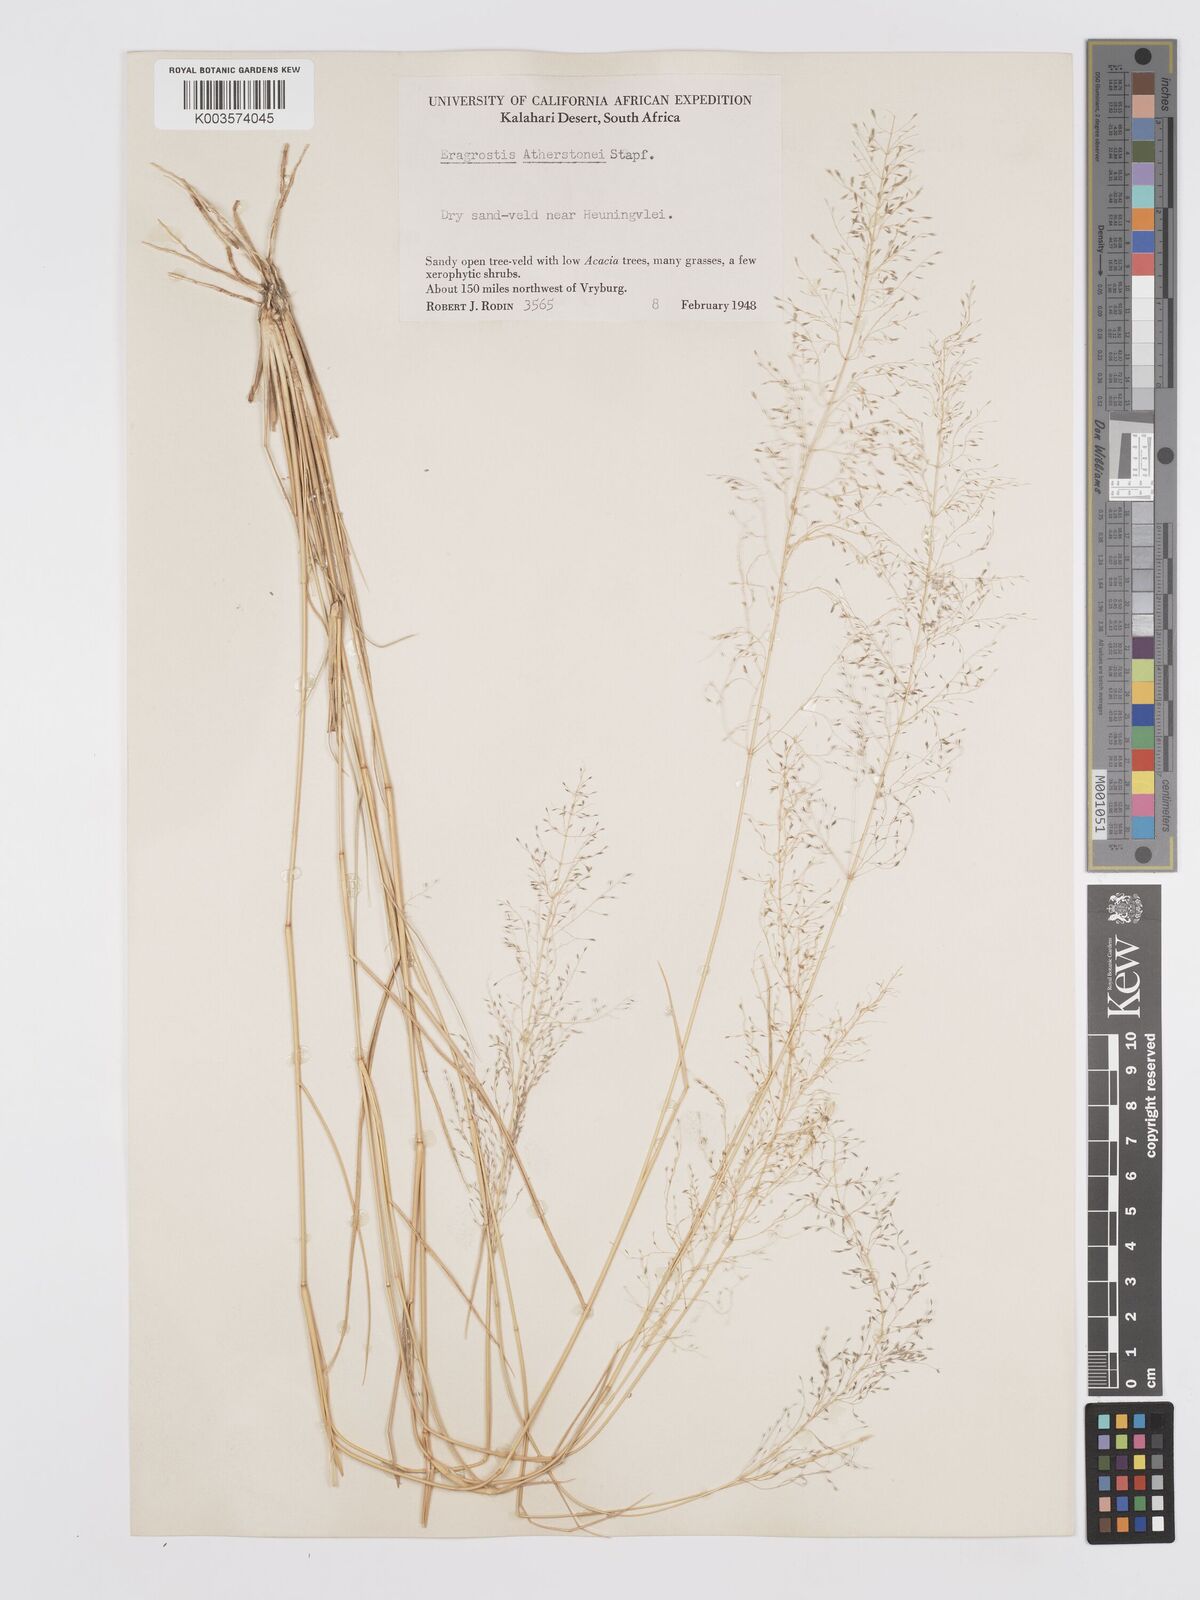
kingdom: Plantae
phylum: Tracheophyta
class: Liliopsida
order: Poales
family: Poaceae
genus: Eragrostis
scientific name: Eragrostis cylindriflora
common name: Cylinderflower lovegrass
